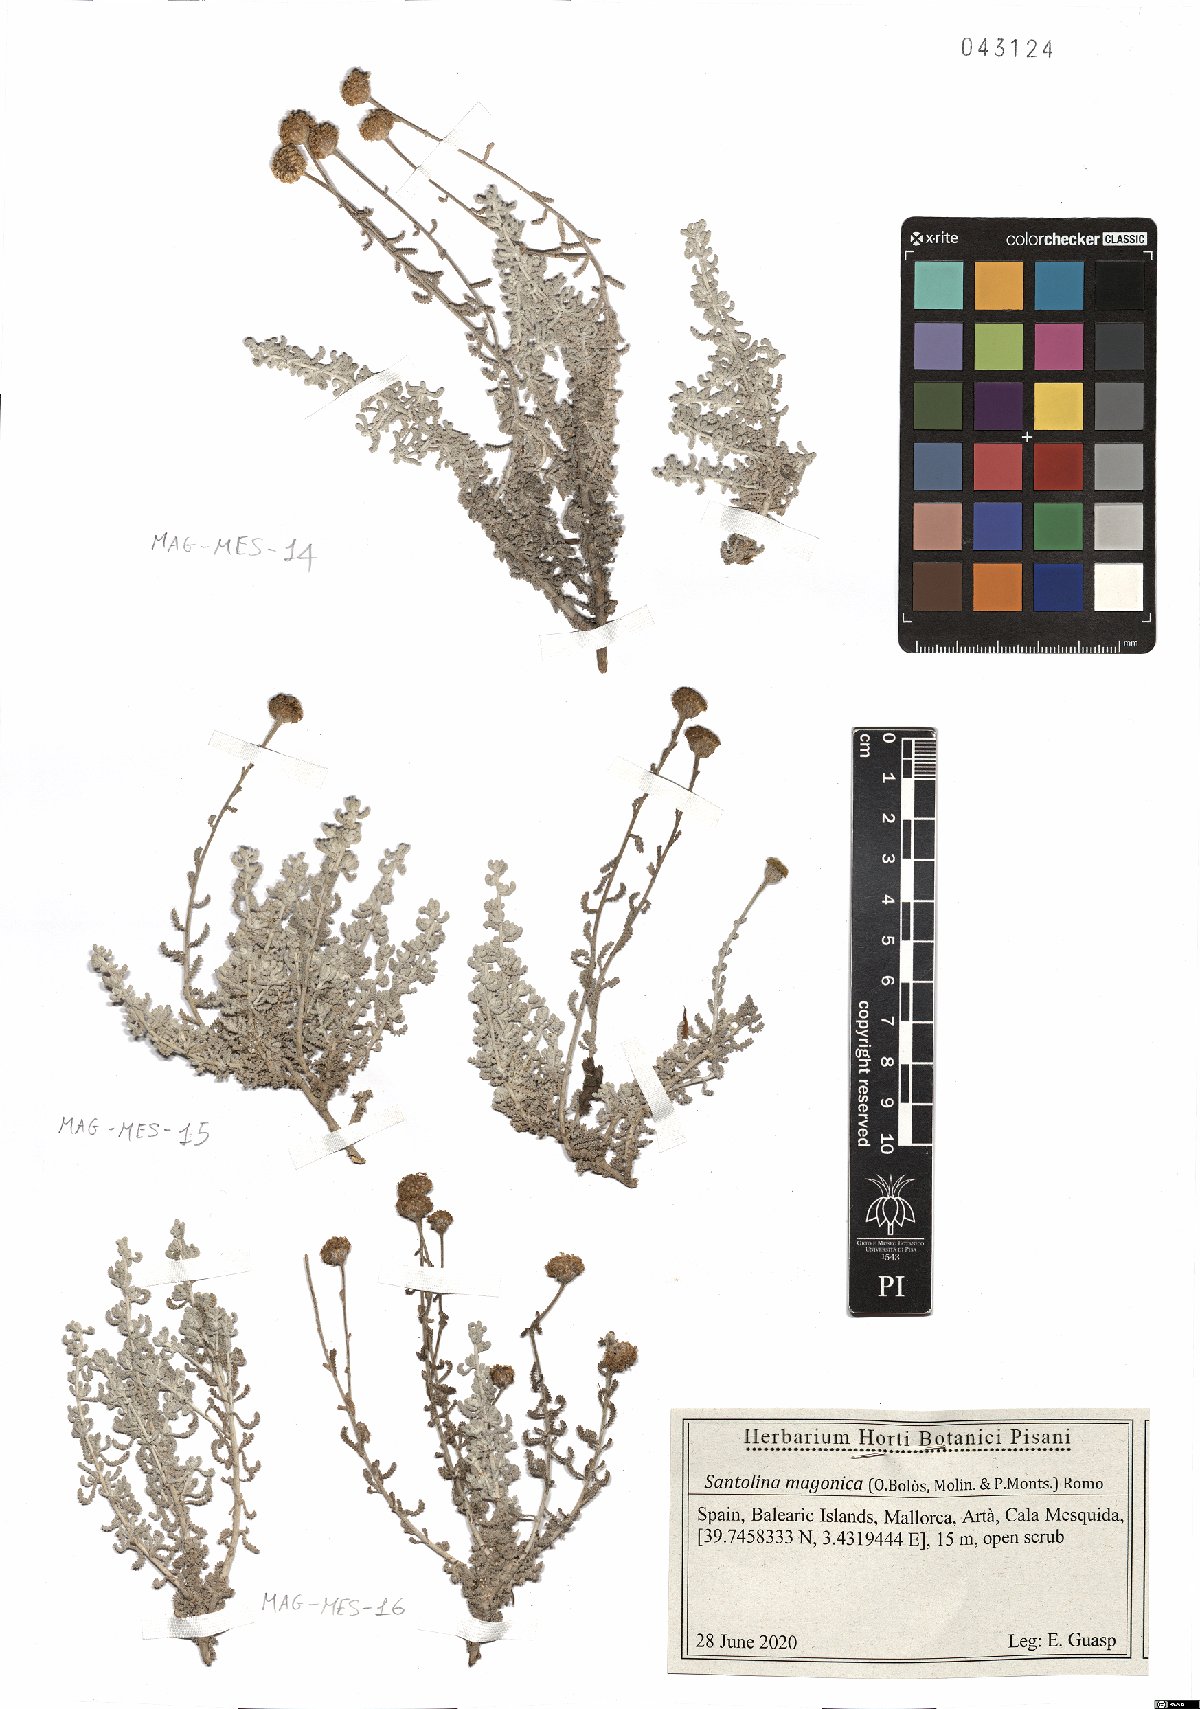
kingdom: Plantae
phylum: Tracheophyta
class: Magnoliopsida
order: Asterales
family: Asteraceae
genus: Santolina
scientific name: Santolina magonica
